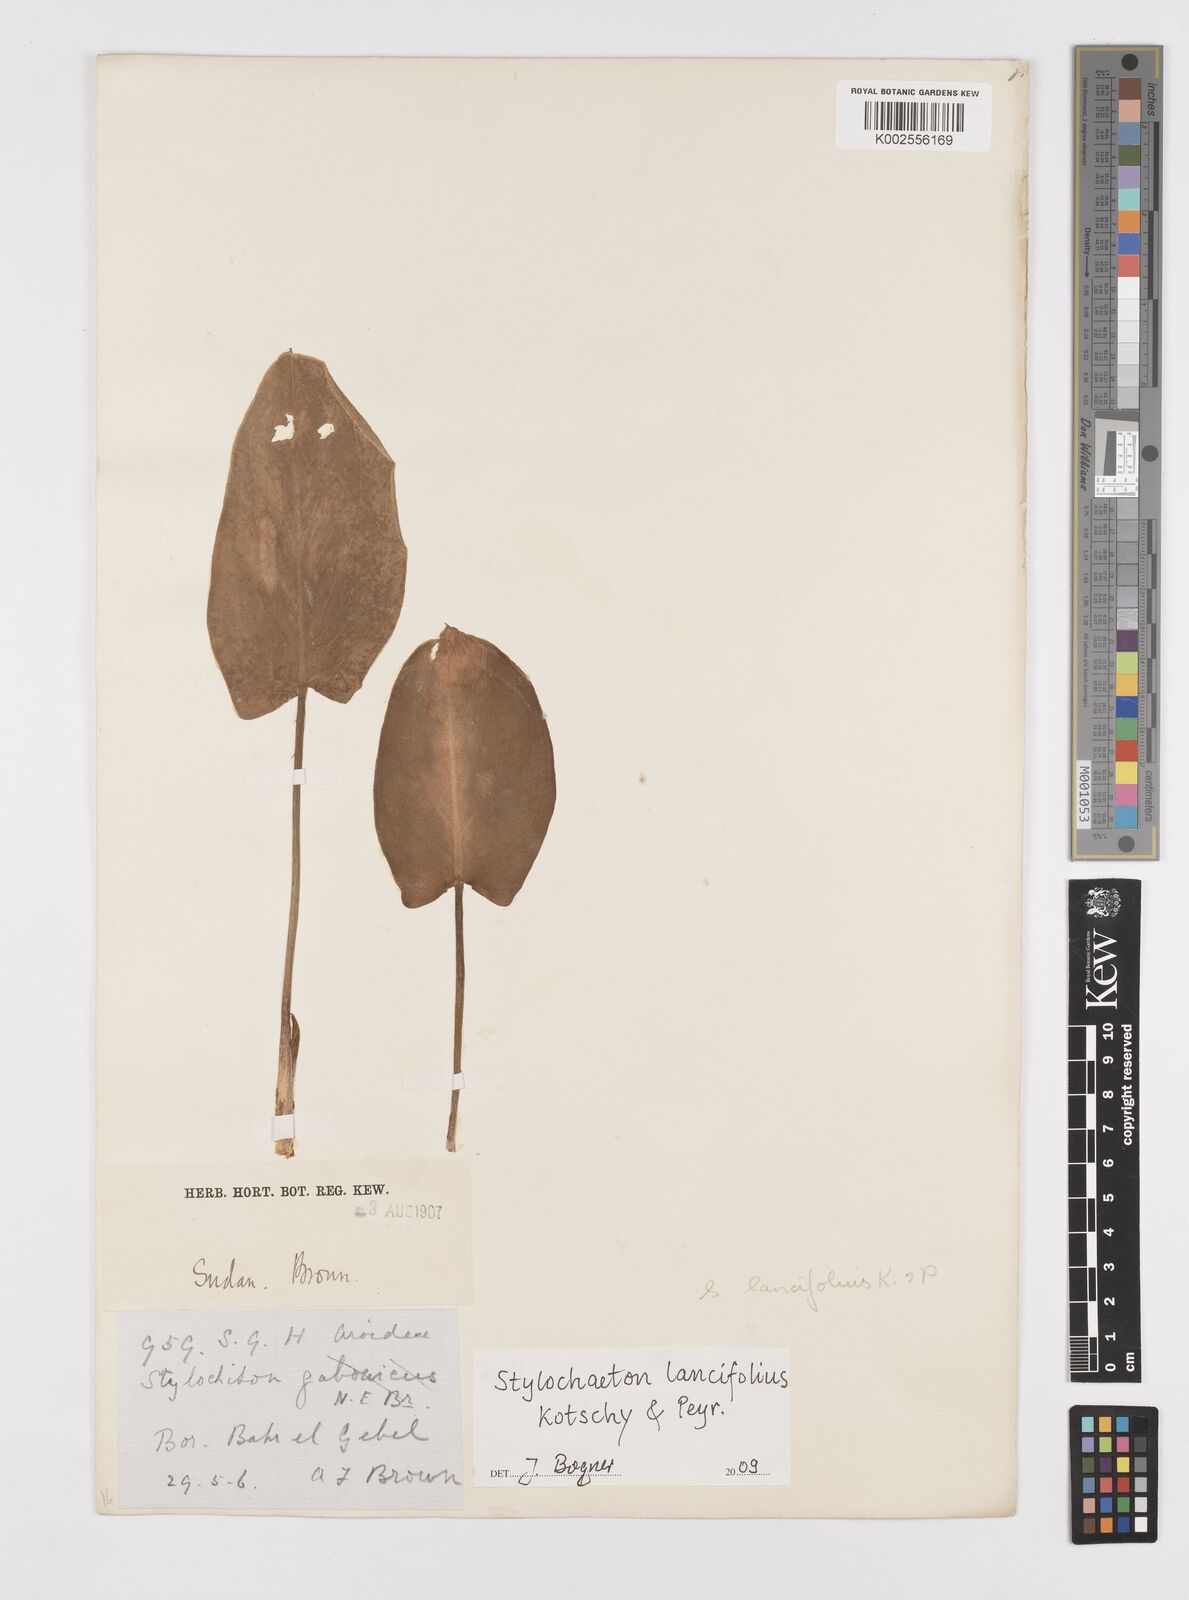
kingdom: Plantae
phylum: Tracheophyta
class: Liliopsida
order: Alismatales
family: Araceae
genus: Stylochaeton
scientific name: Stylochaeton lancifolium
